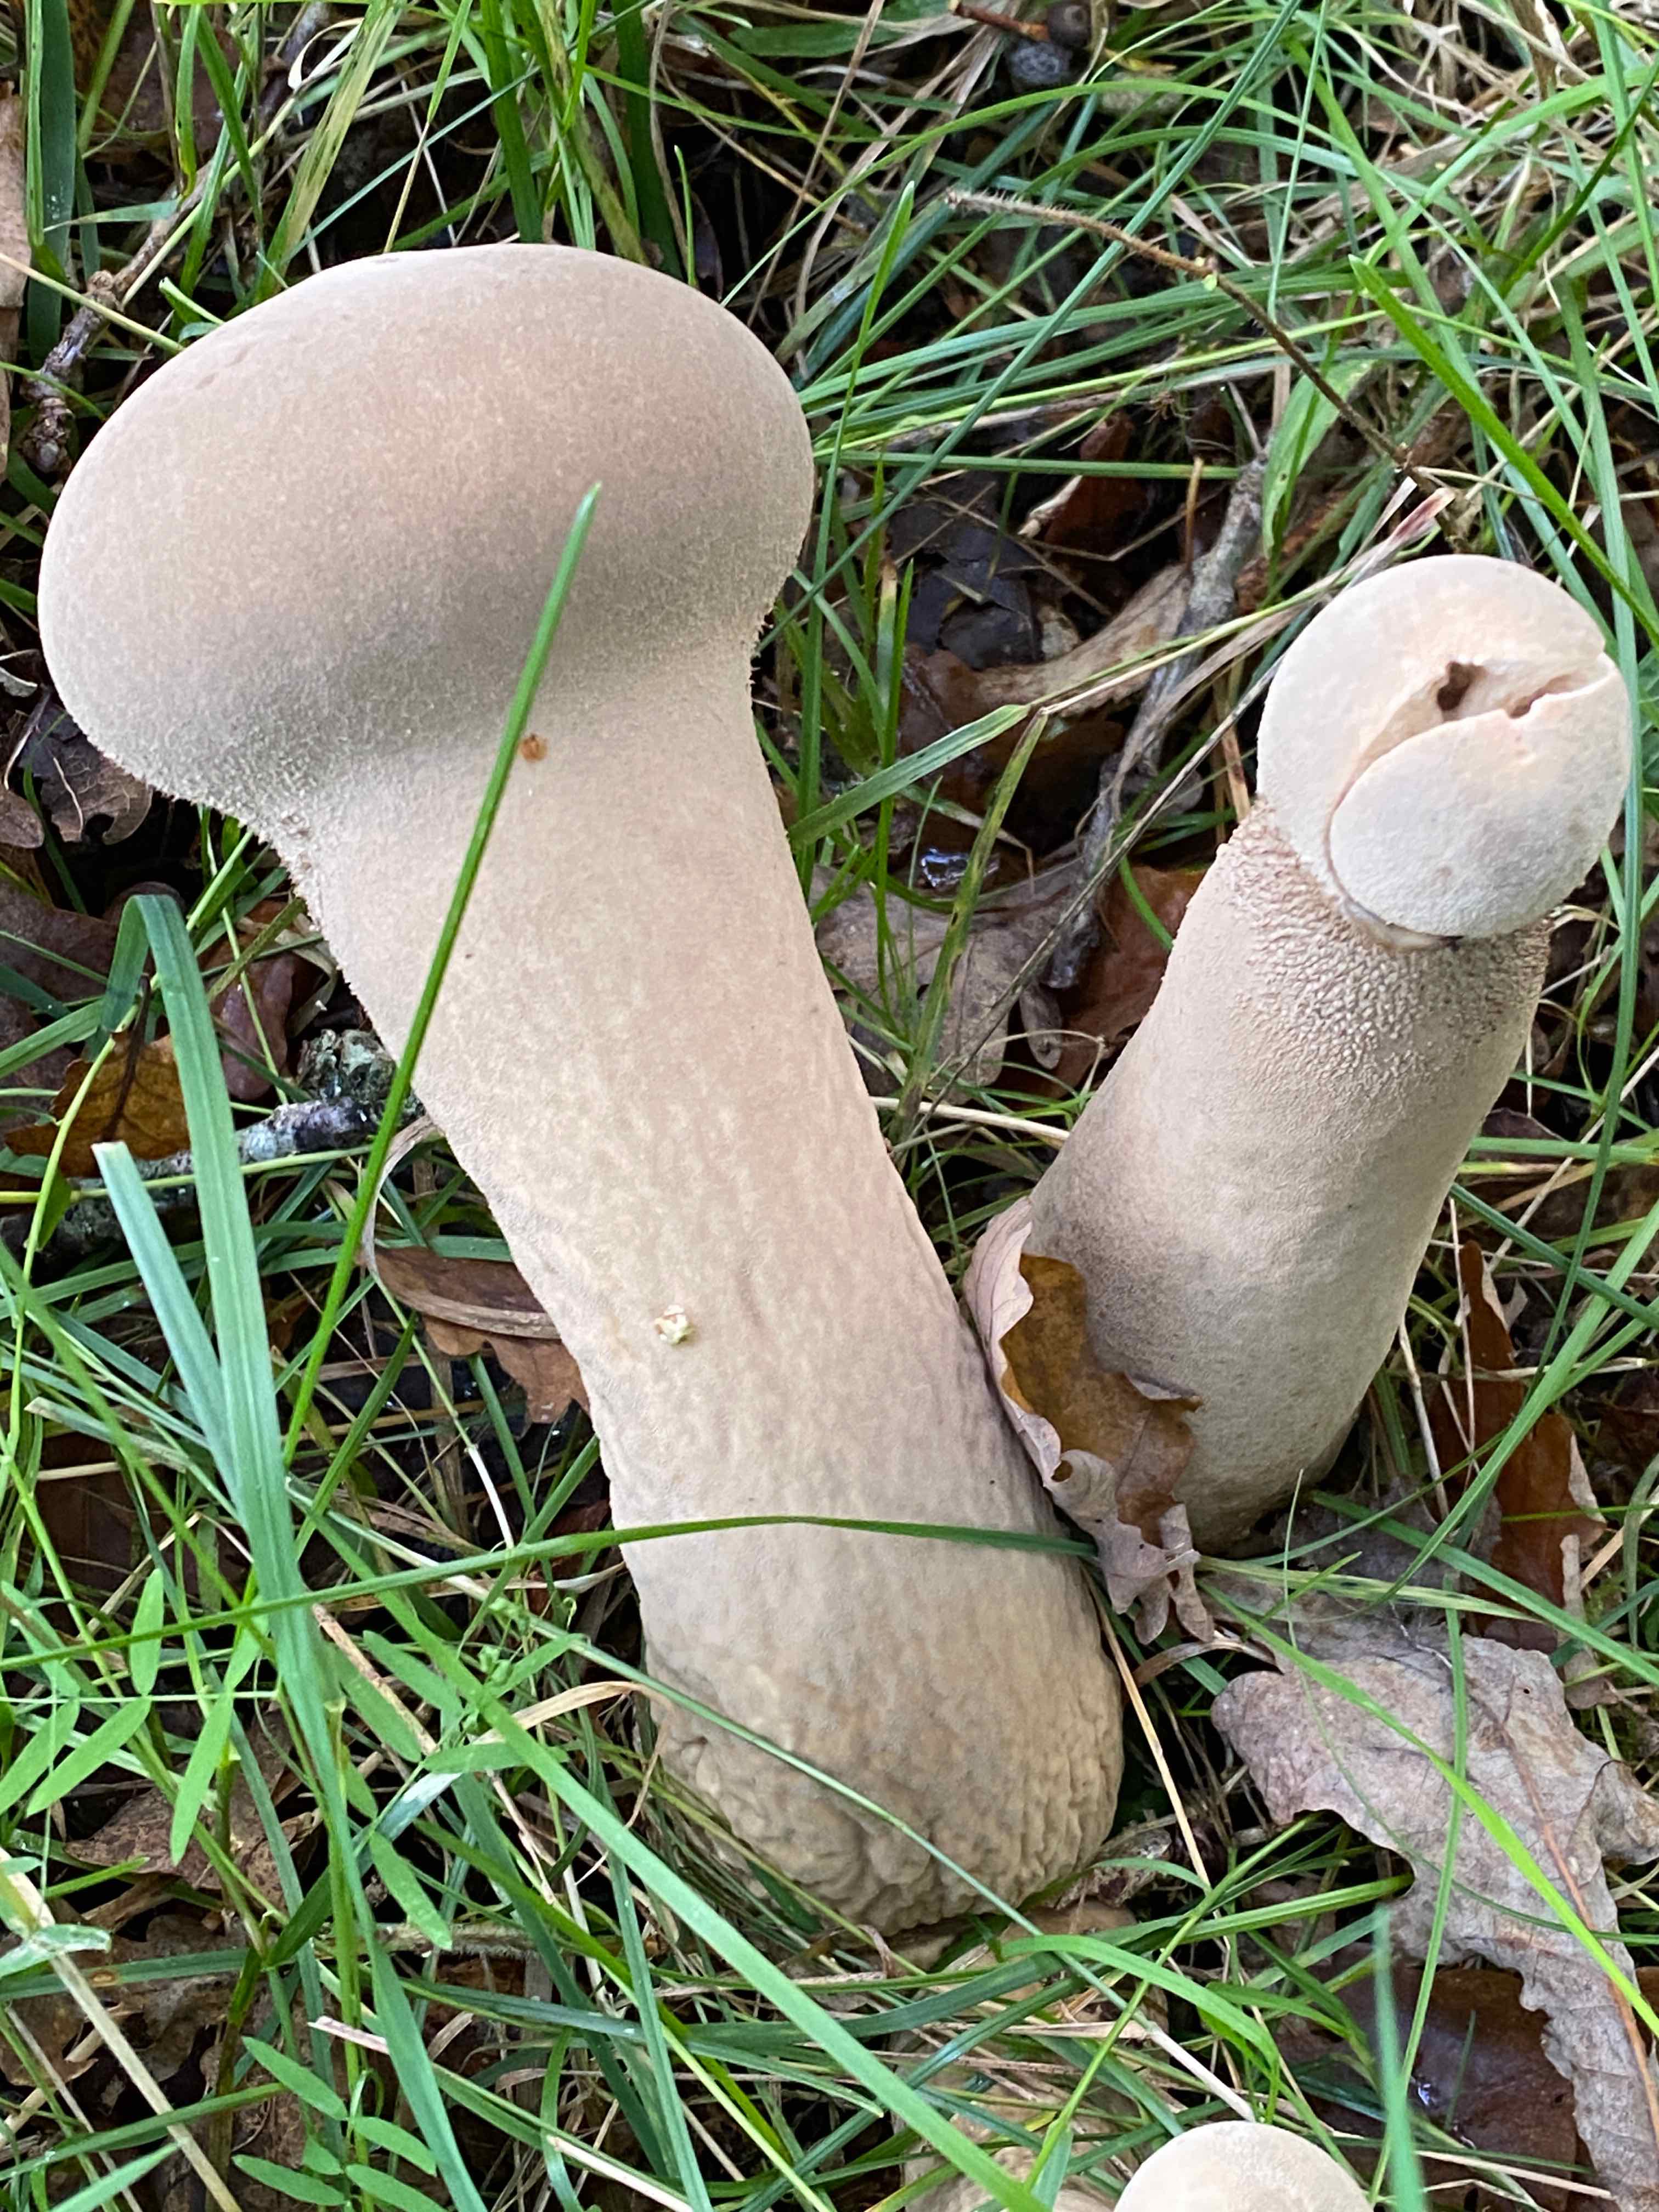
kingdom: Fungi
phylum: Basidiomycota
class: Agaricomycetes
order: Agaricales
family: Lycoperdaceae
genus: Lycoperdon
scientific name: Lycoperdon excipuliforme
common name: højstokket støvbold
